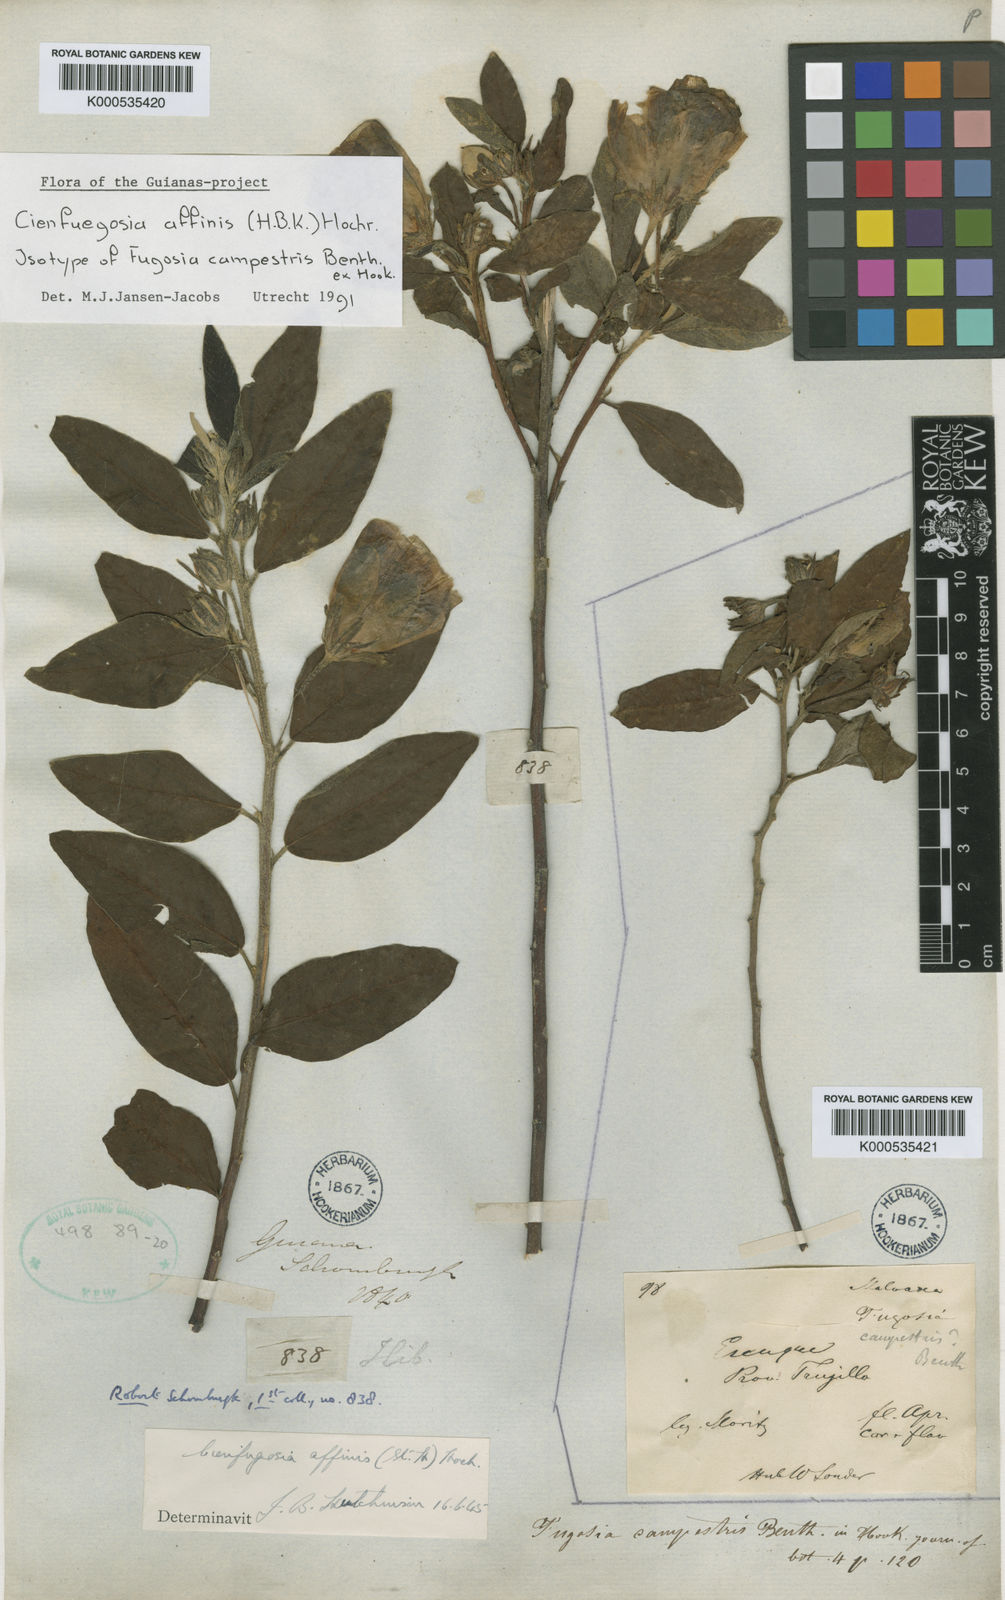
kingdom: Plantae
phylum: Tracheophyta
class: Magnoliopsida
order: Malvales
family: Malvaceae
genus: Cienfuegosia
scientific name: Cienfuegosia affinis
